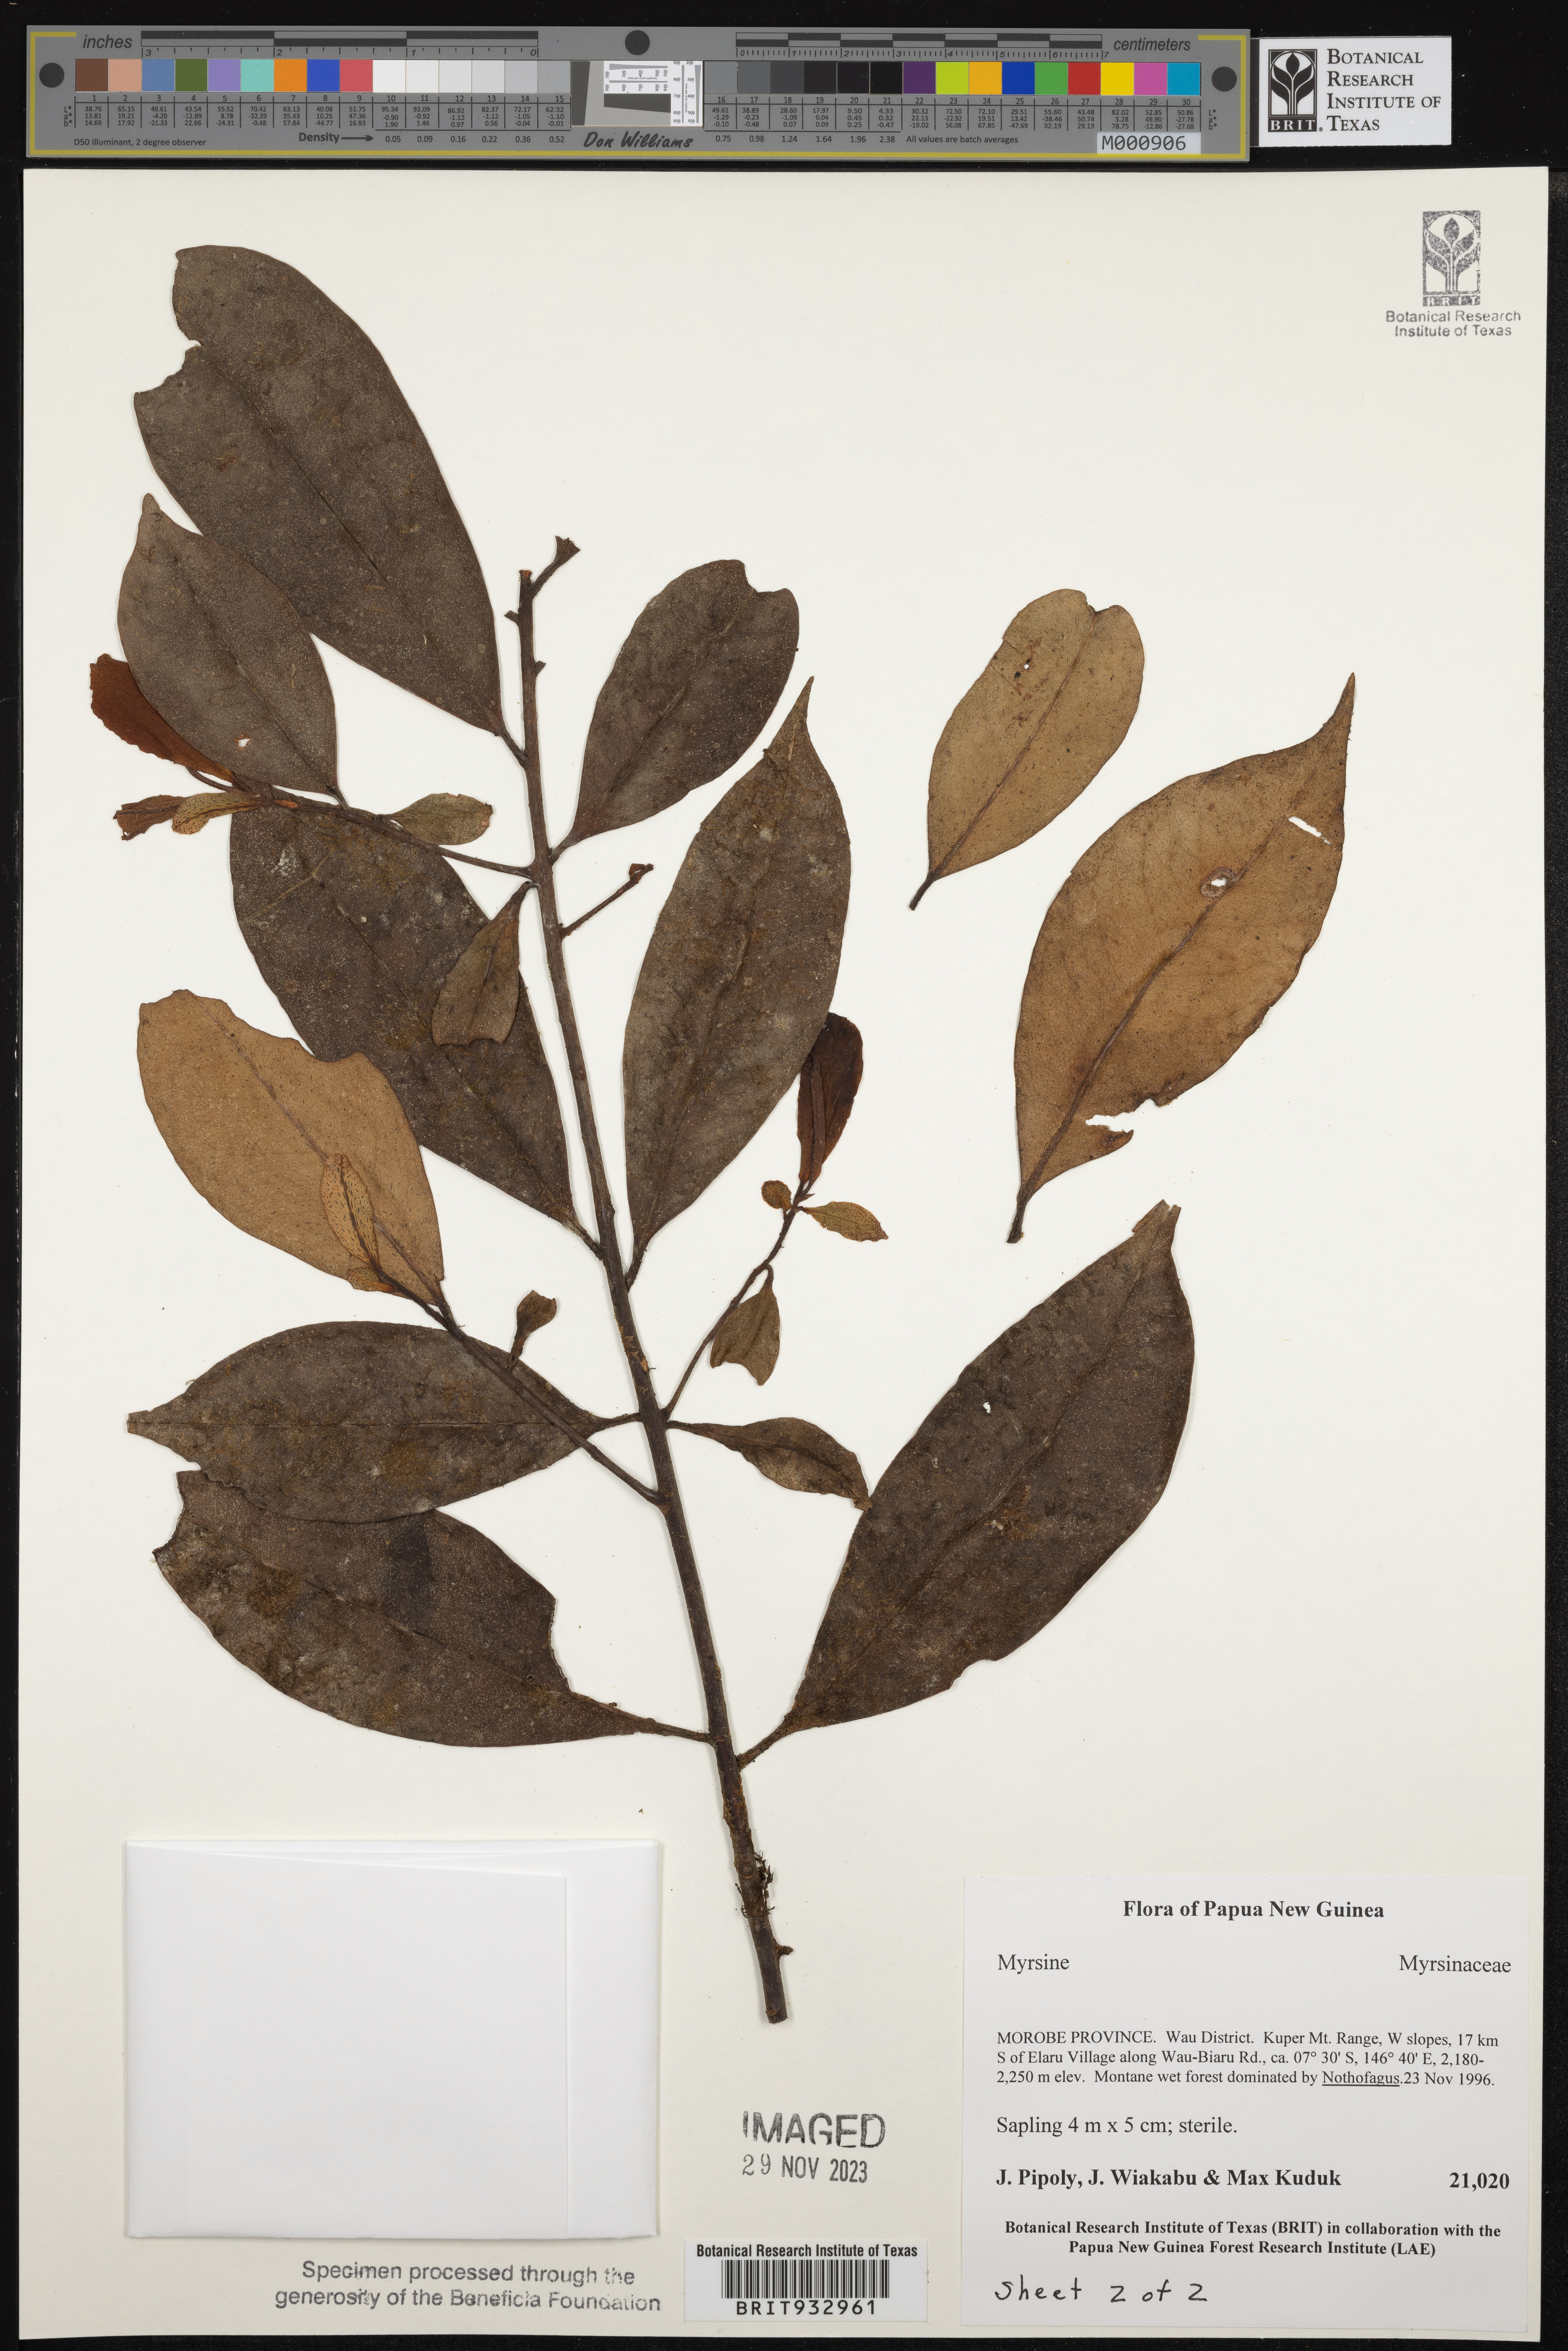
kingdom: Plantae
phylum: Tracheophyta
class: Magnoliopsida
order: Ericales
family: Primulaceae
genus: Myrsine
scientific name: Myrsine
